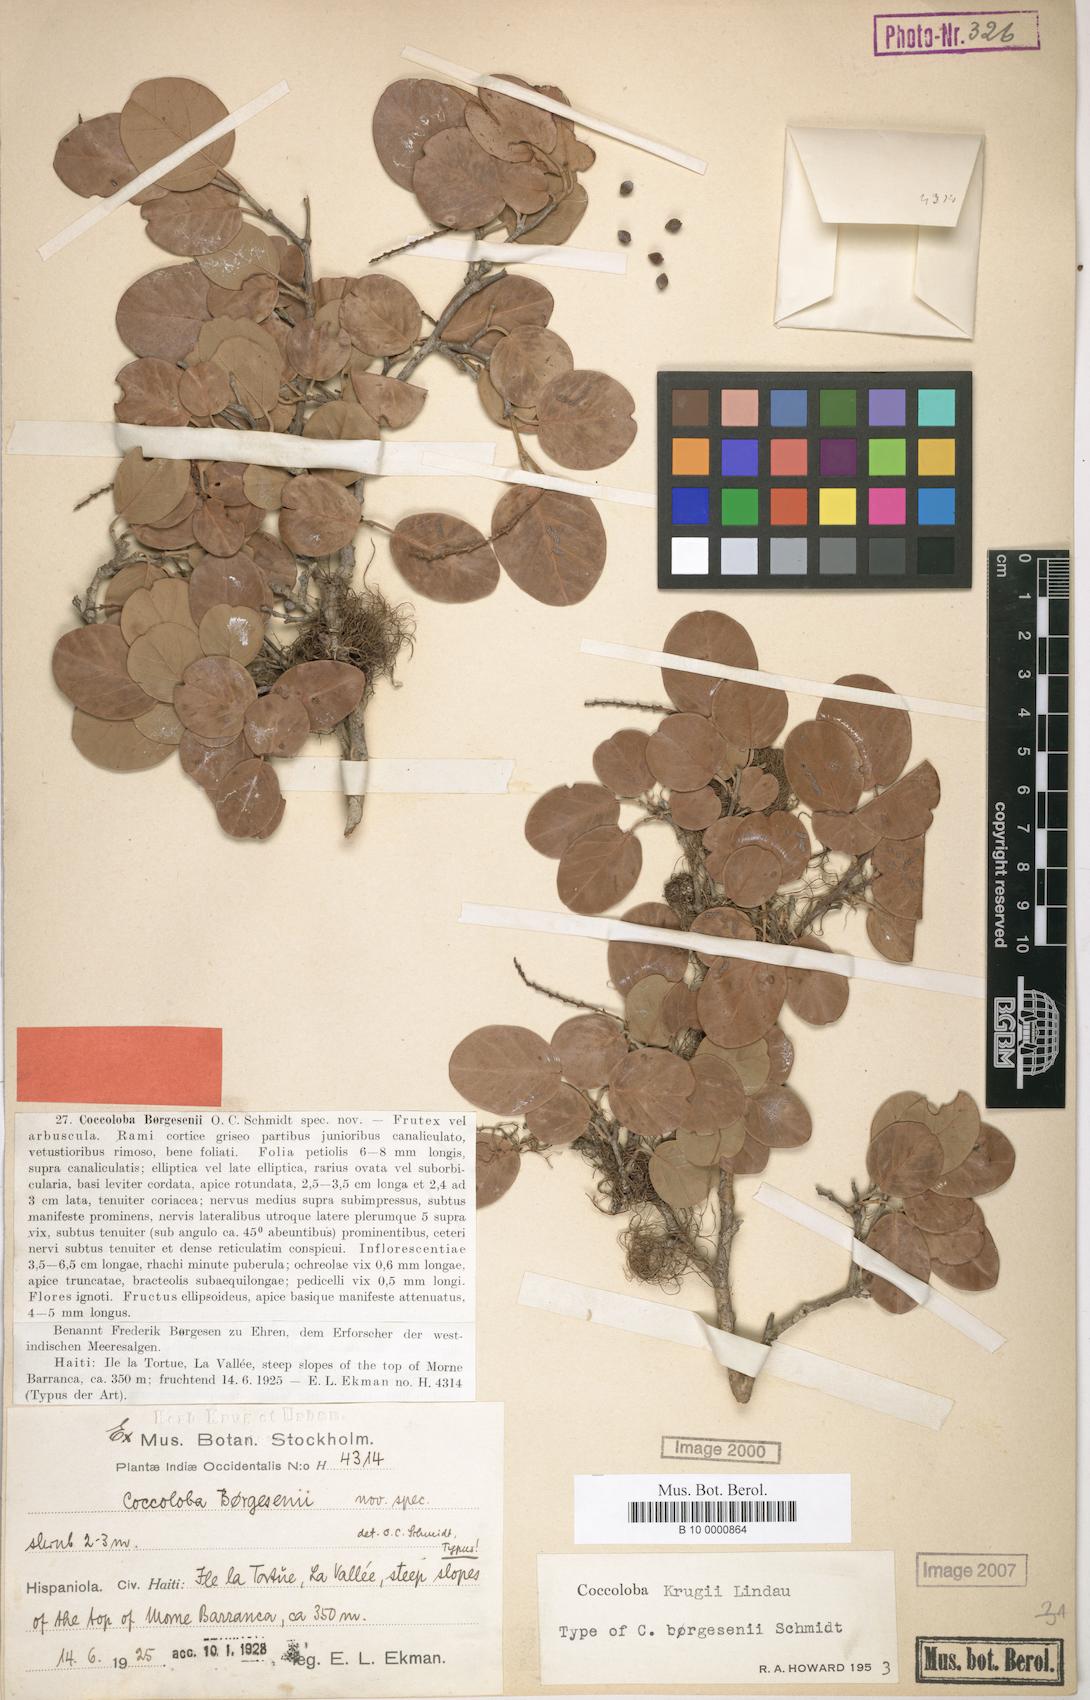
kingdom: Plantae
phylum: Tracheophyta
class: Magnoliopsida
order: Caryophyllales
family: Polygonaceae
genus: Coccoloba
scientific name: Coccoloba krugii
